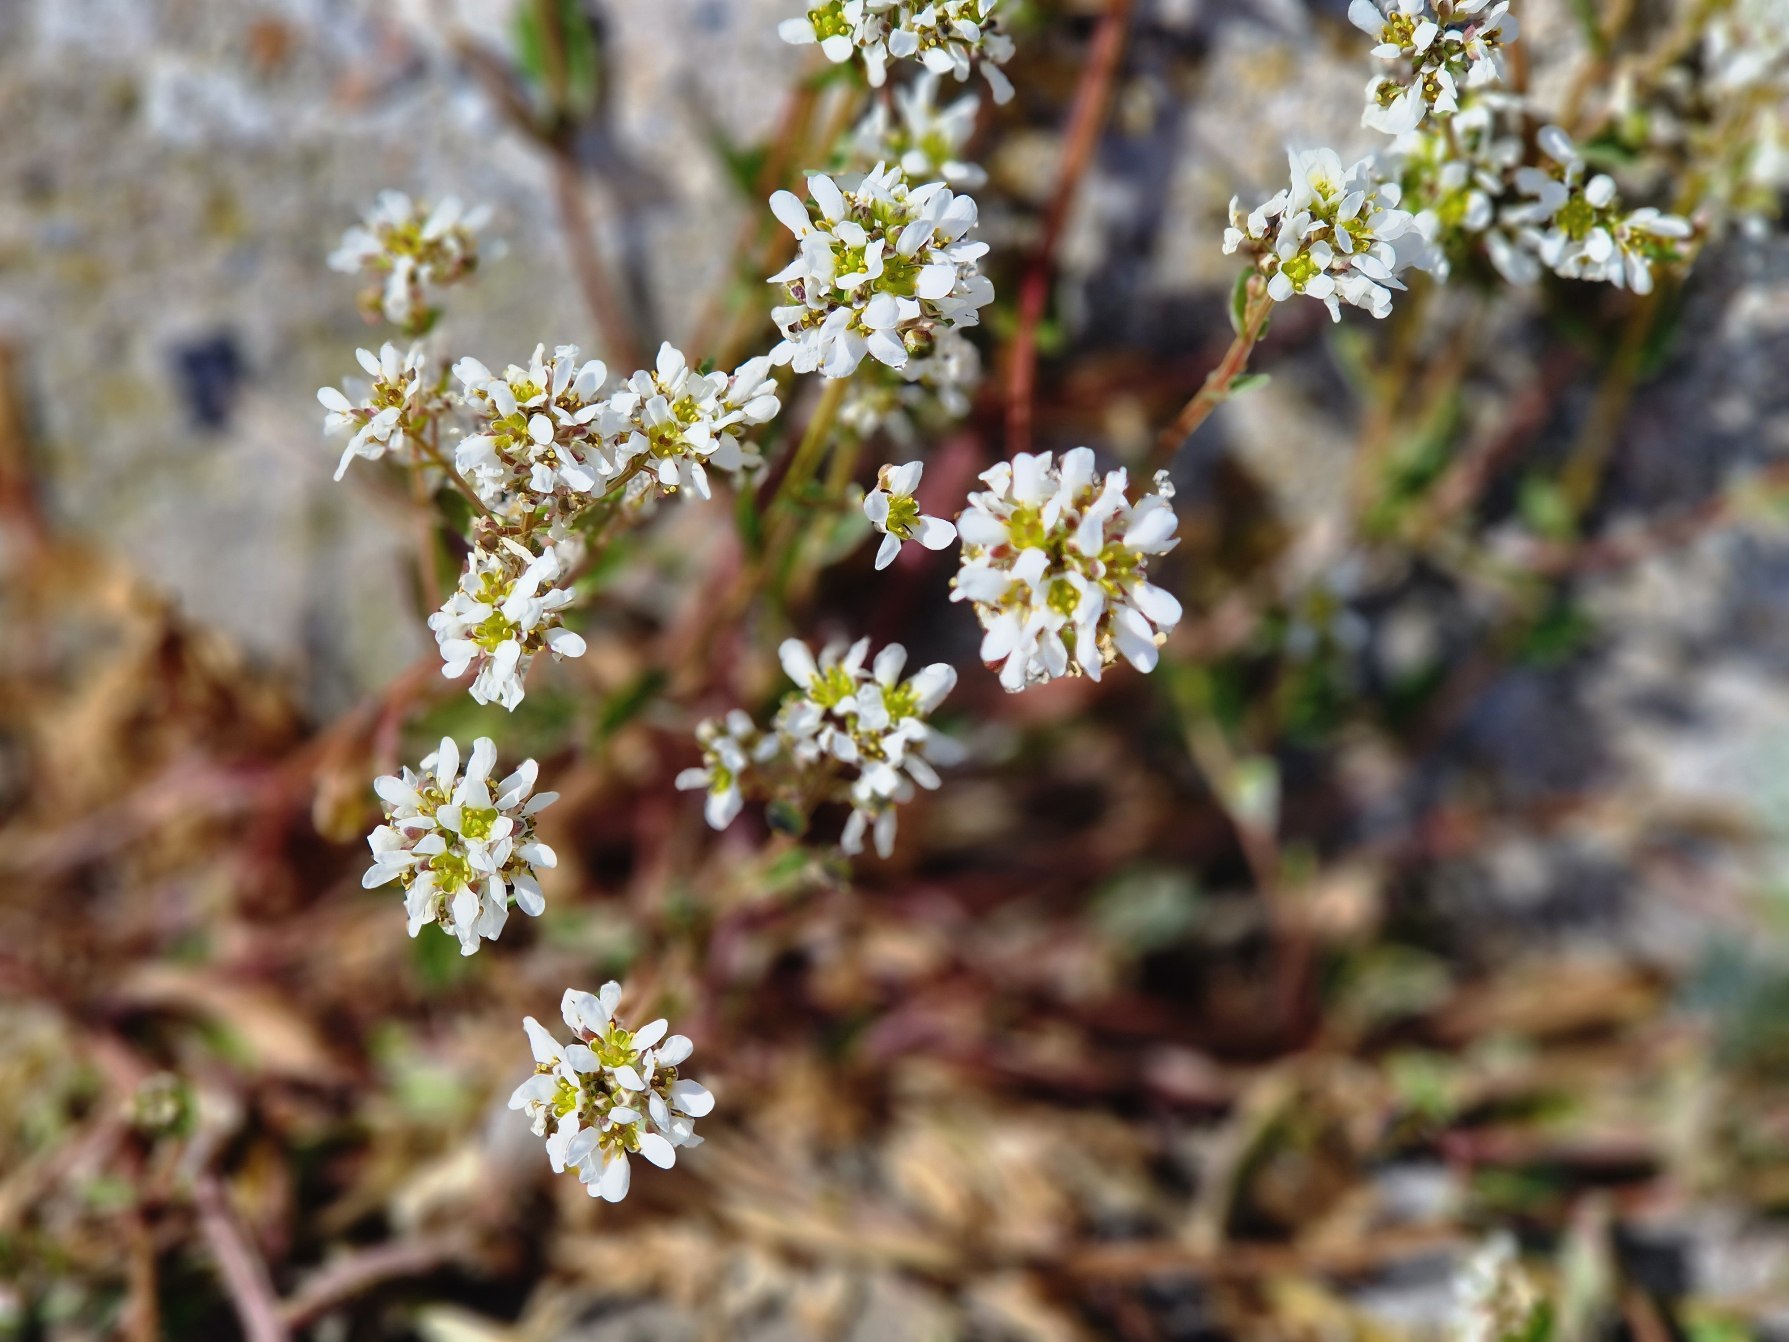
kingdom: Plantae
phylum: Tracheophyta
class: Magnoliopsida
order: Brassicales
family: Brassicaceae
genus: Cochlearia
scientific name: Cochlearia officinalis
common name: Læge-kokleare
